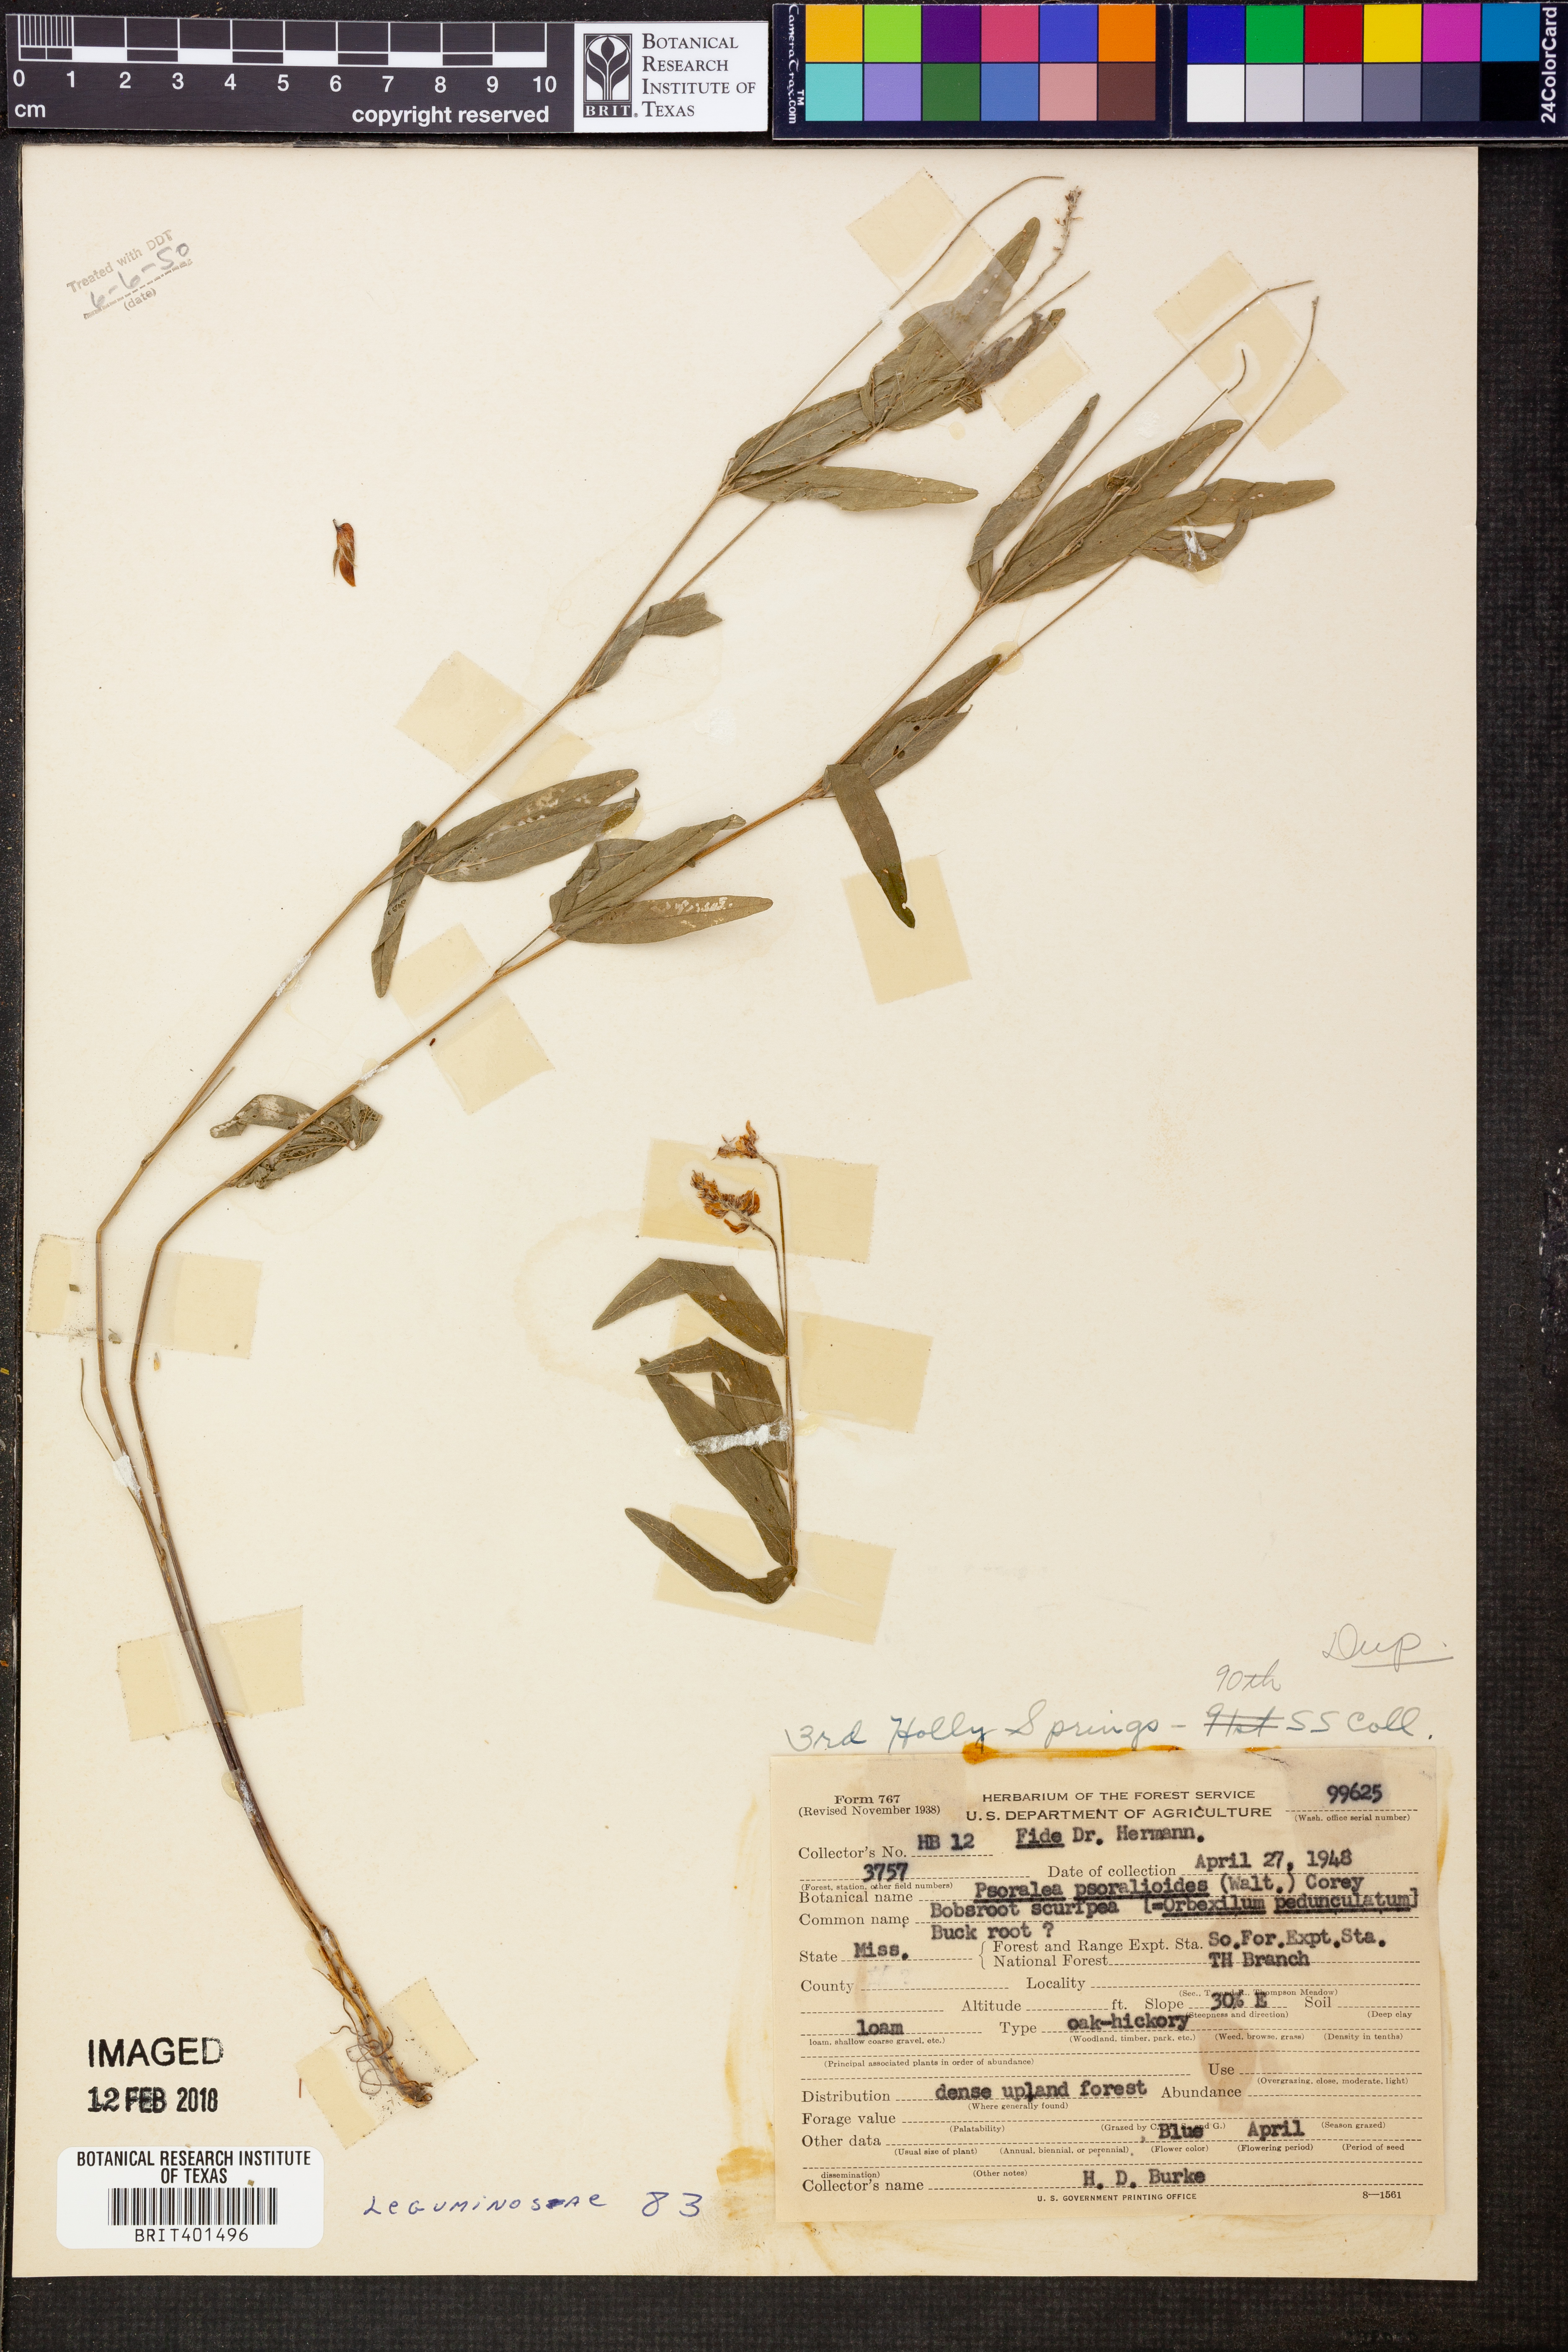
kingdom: Plantae
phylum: Tracheophyta
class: Magnoliopsida
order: Fabales
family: Fabaceae
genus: Orbexilum
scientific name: Orbexilum psoralioides
